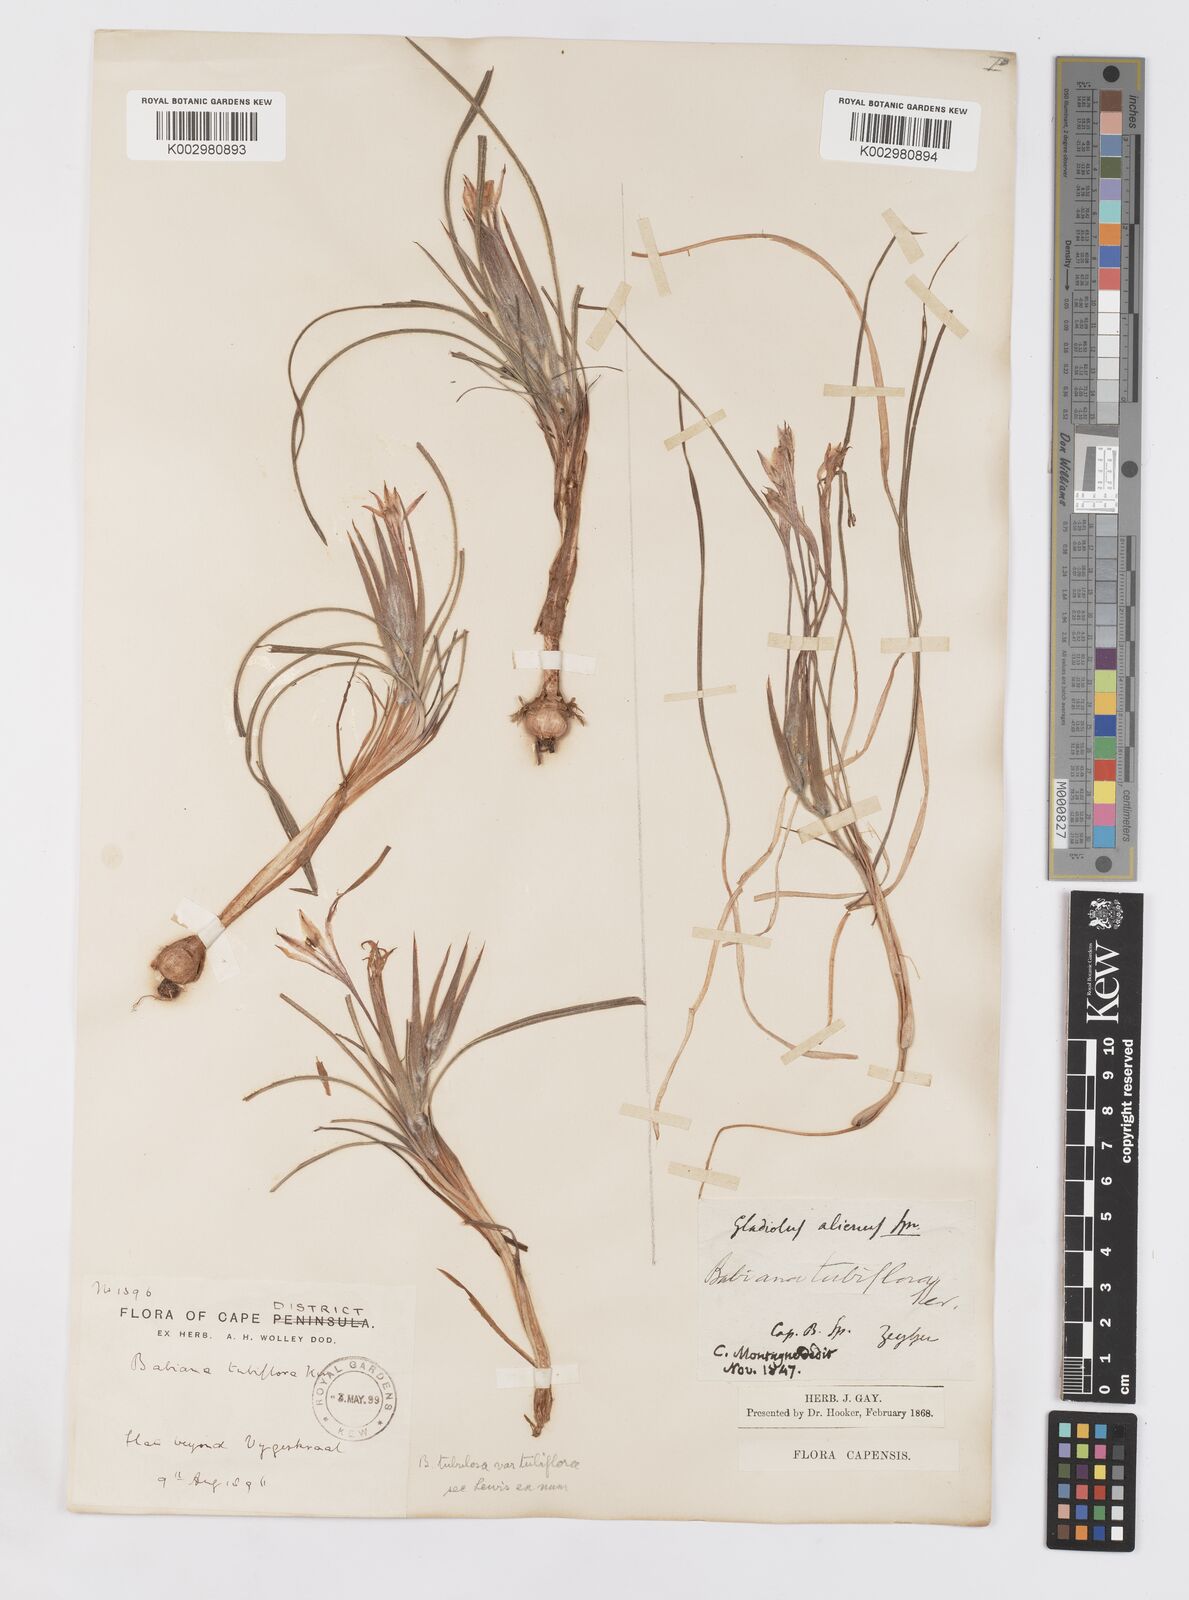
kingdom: Plantae
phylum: Tracheophyta
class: Liliopsida
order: Asparagales
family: Iridaceae
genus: Babiana
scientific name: Babiana tubiflora
